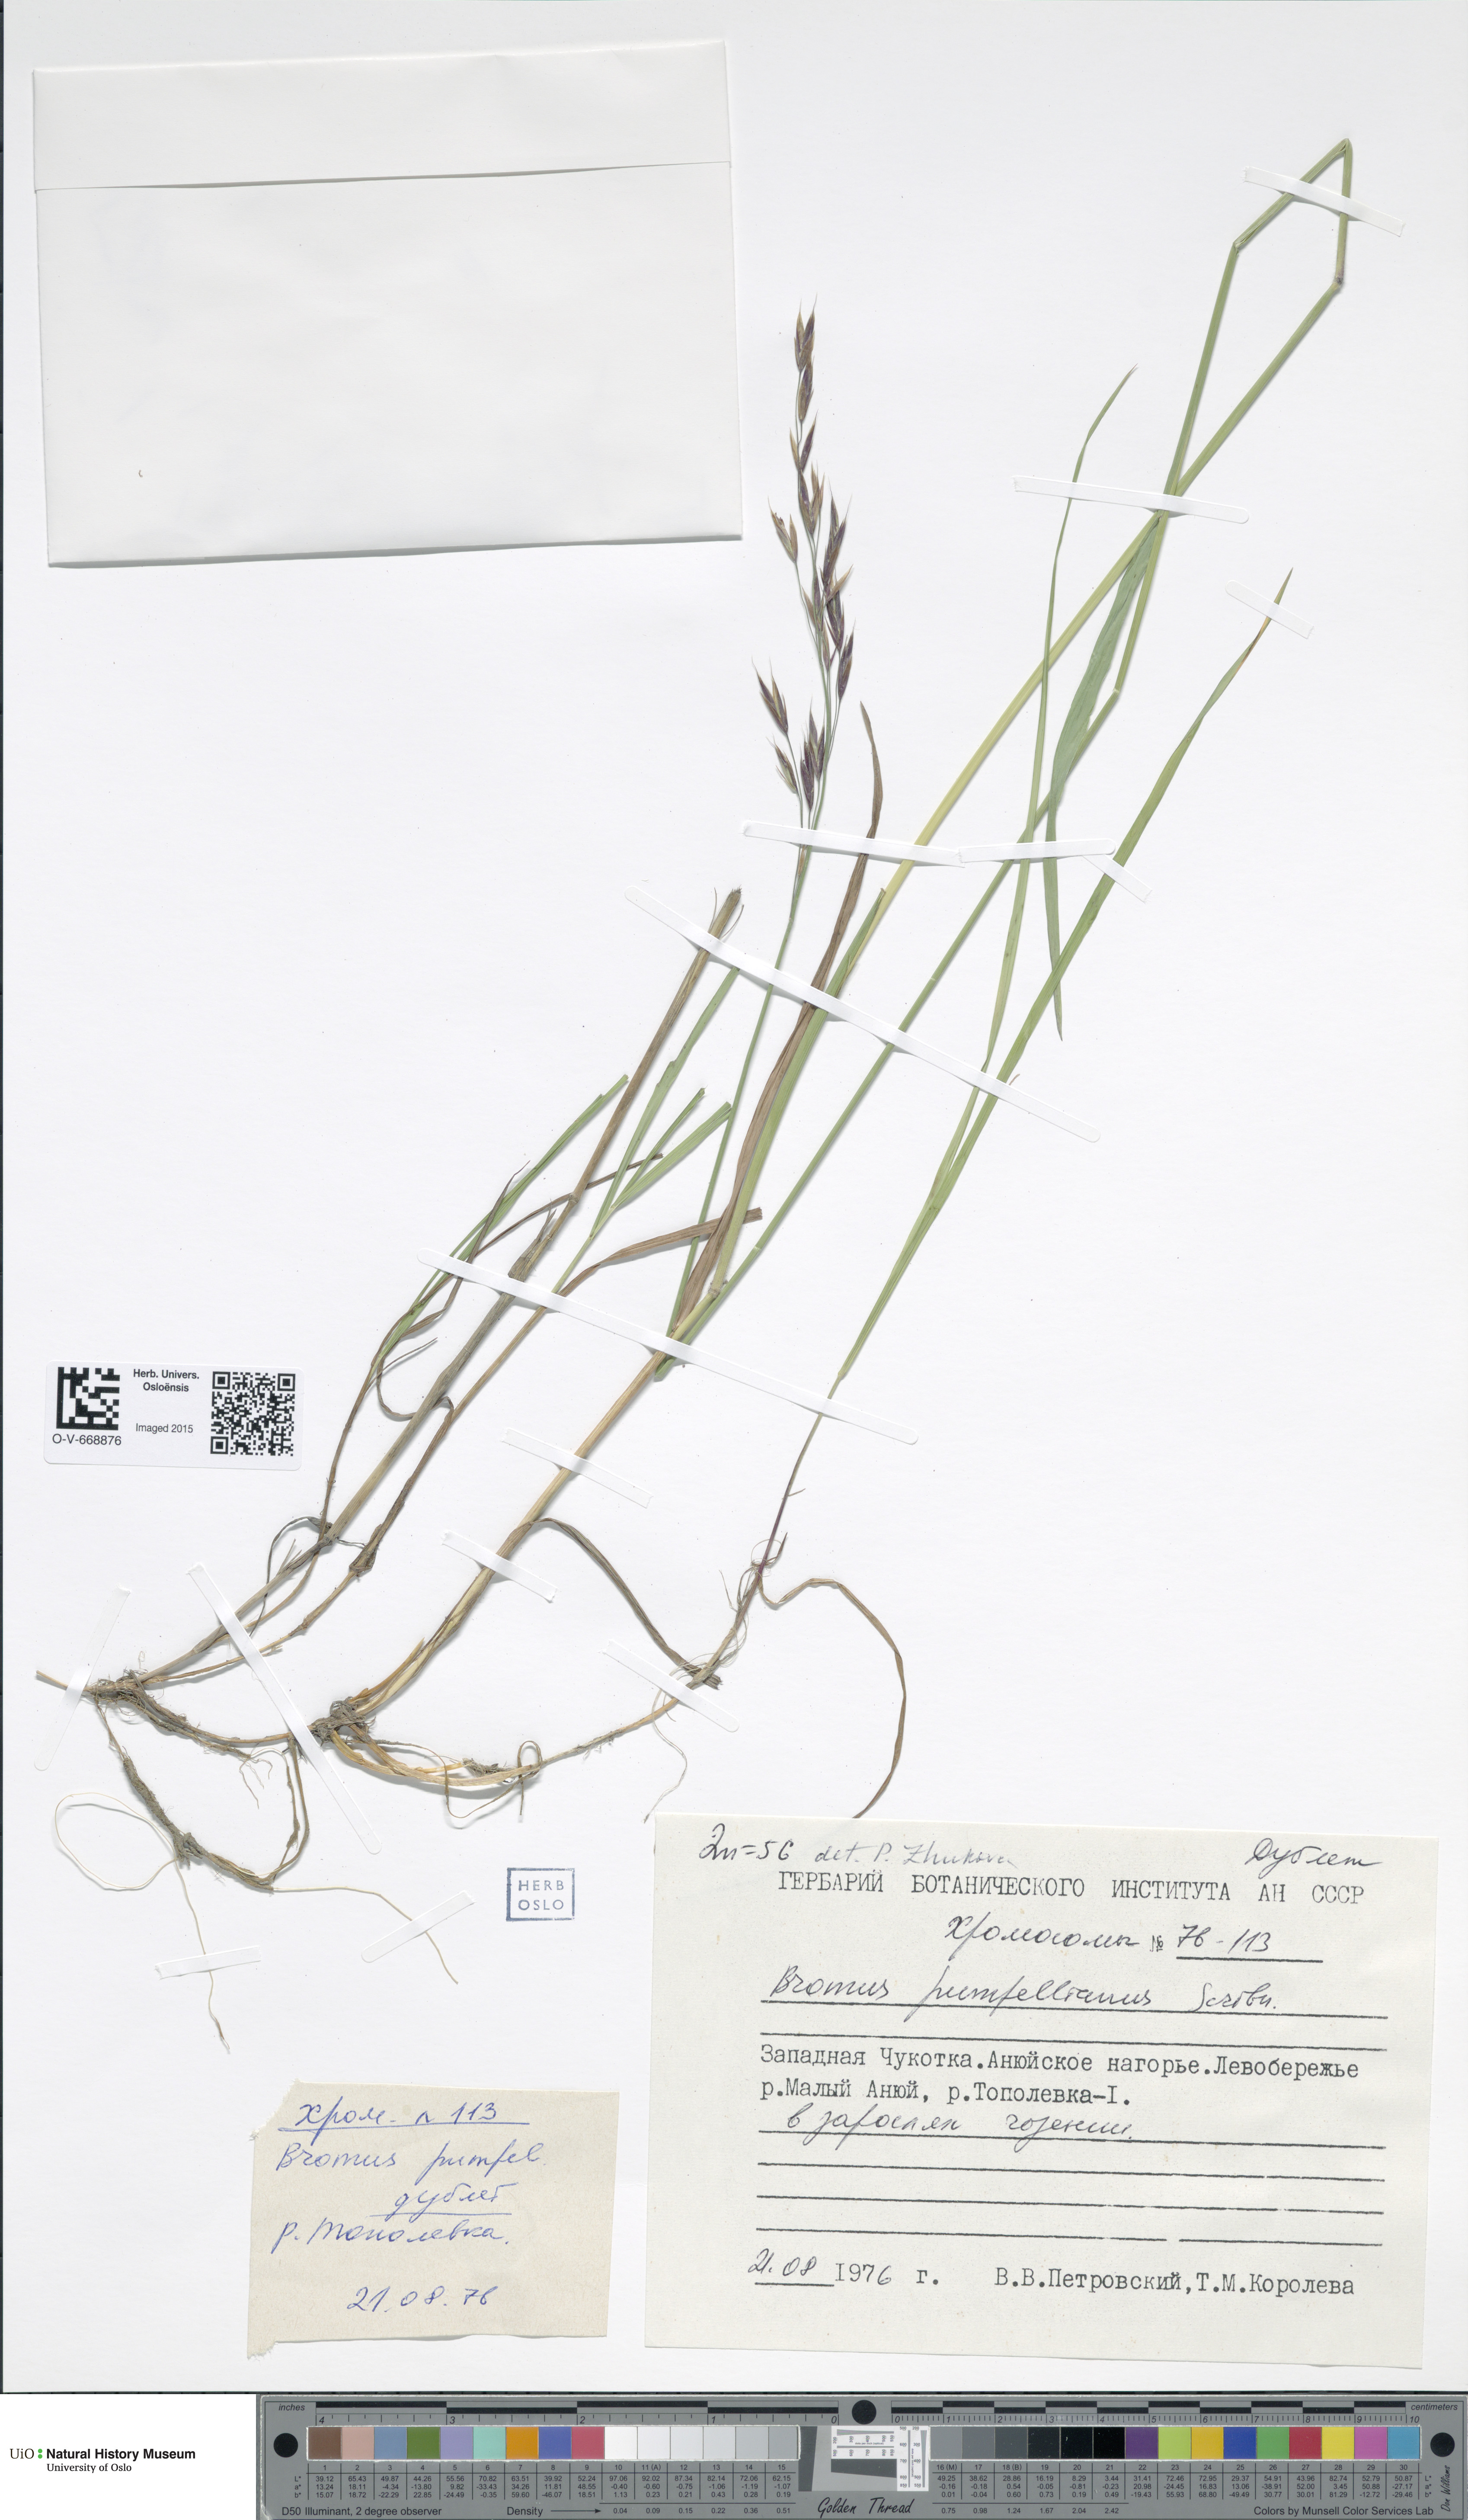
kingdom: Plantae
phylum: Tracheophyta
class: Liliopsida
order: Poales
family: Poaceae
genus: Bromus
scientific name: Bromus pumpellianus
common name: Pumpelly's brome
